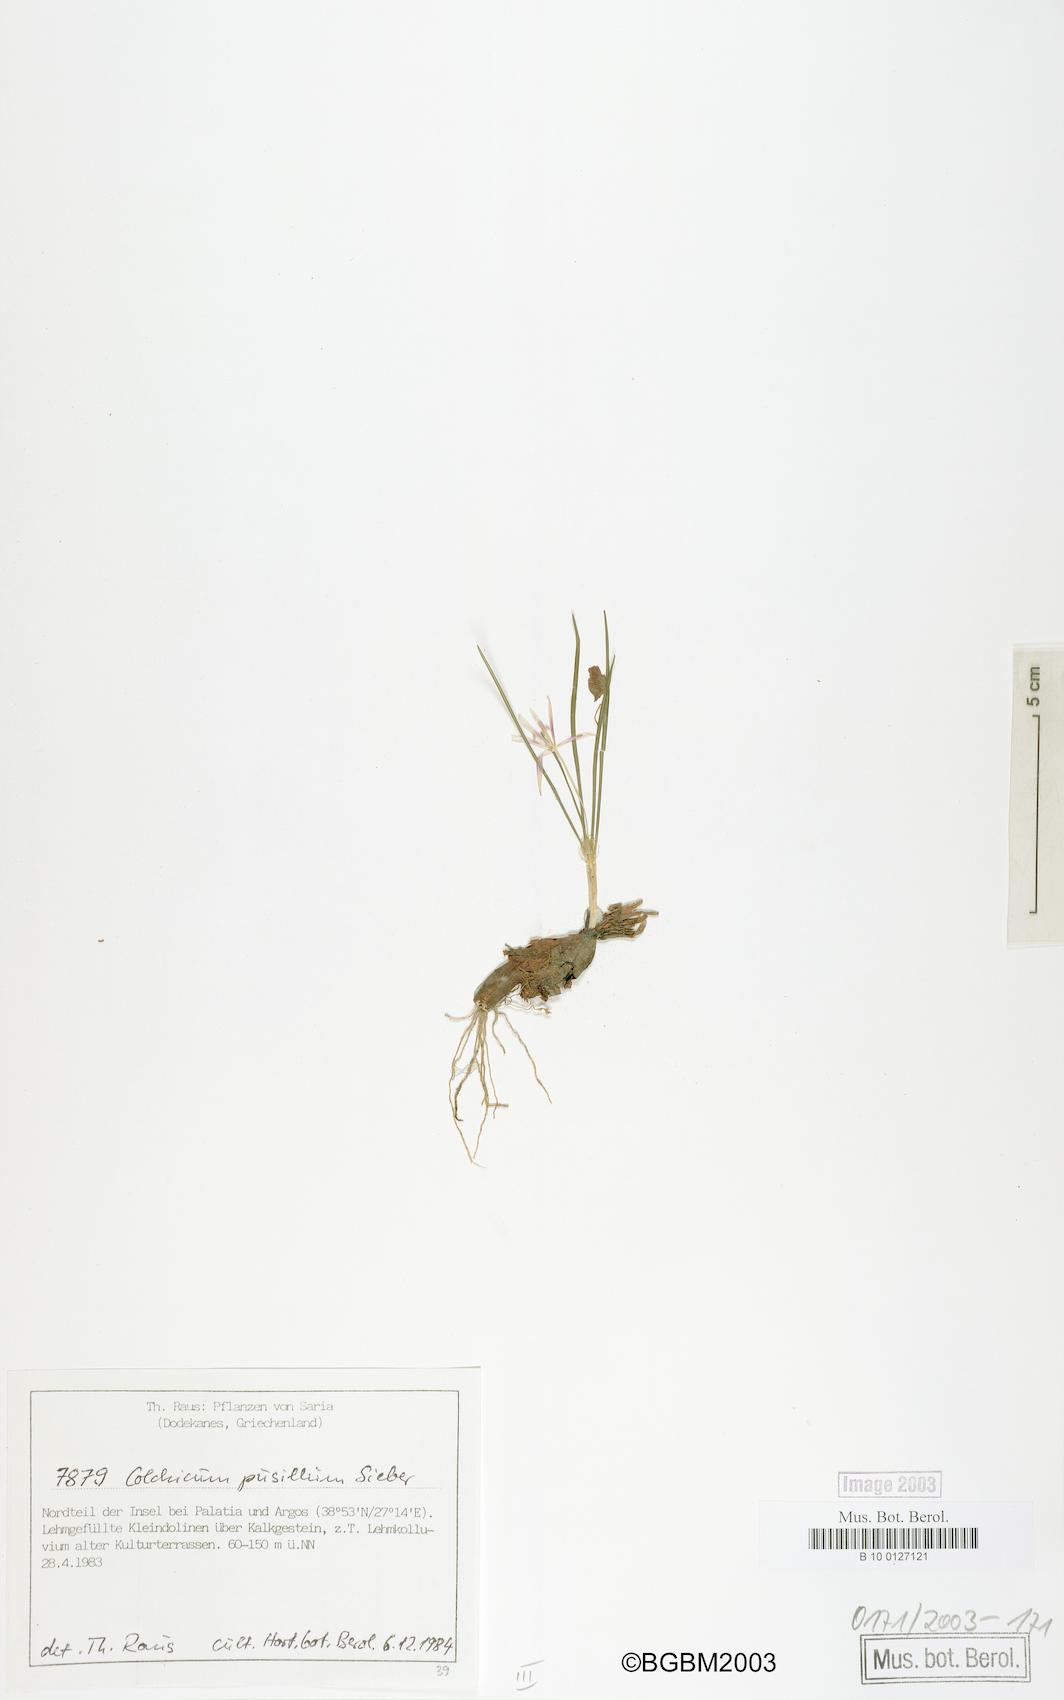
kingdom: Plantae
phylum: Tracheophyta
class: Liliopsida
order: Liliales
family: Colchicaceae
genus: Colchicum
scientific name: Colchicum pusillum
